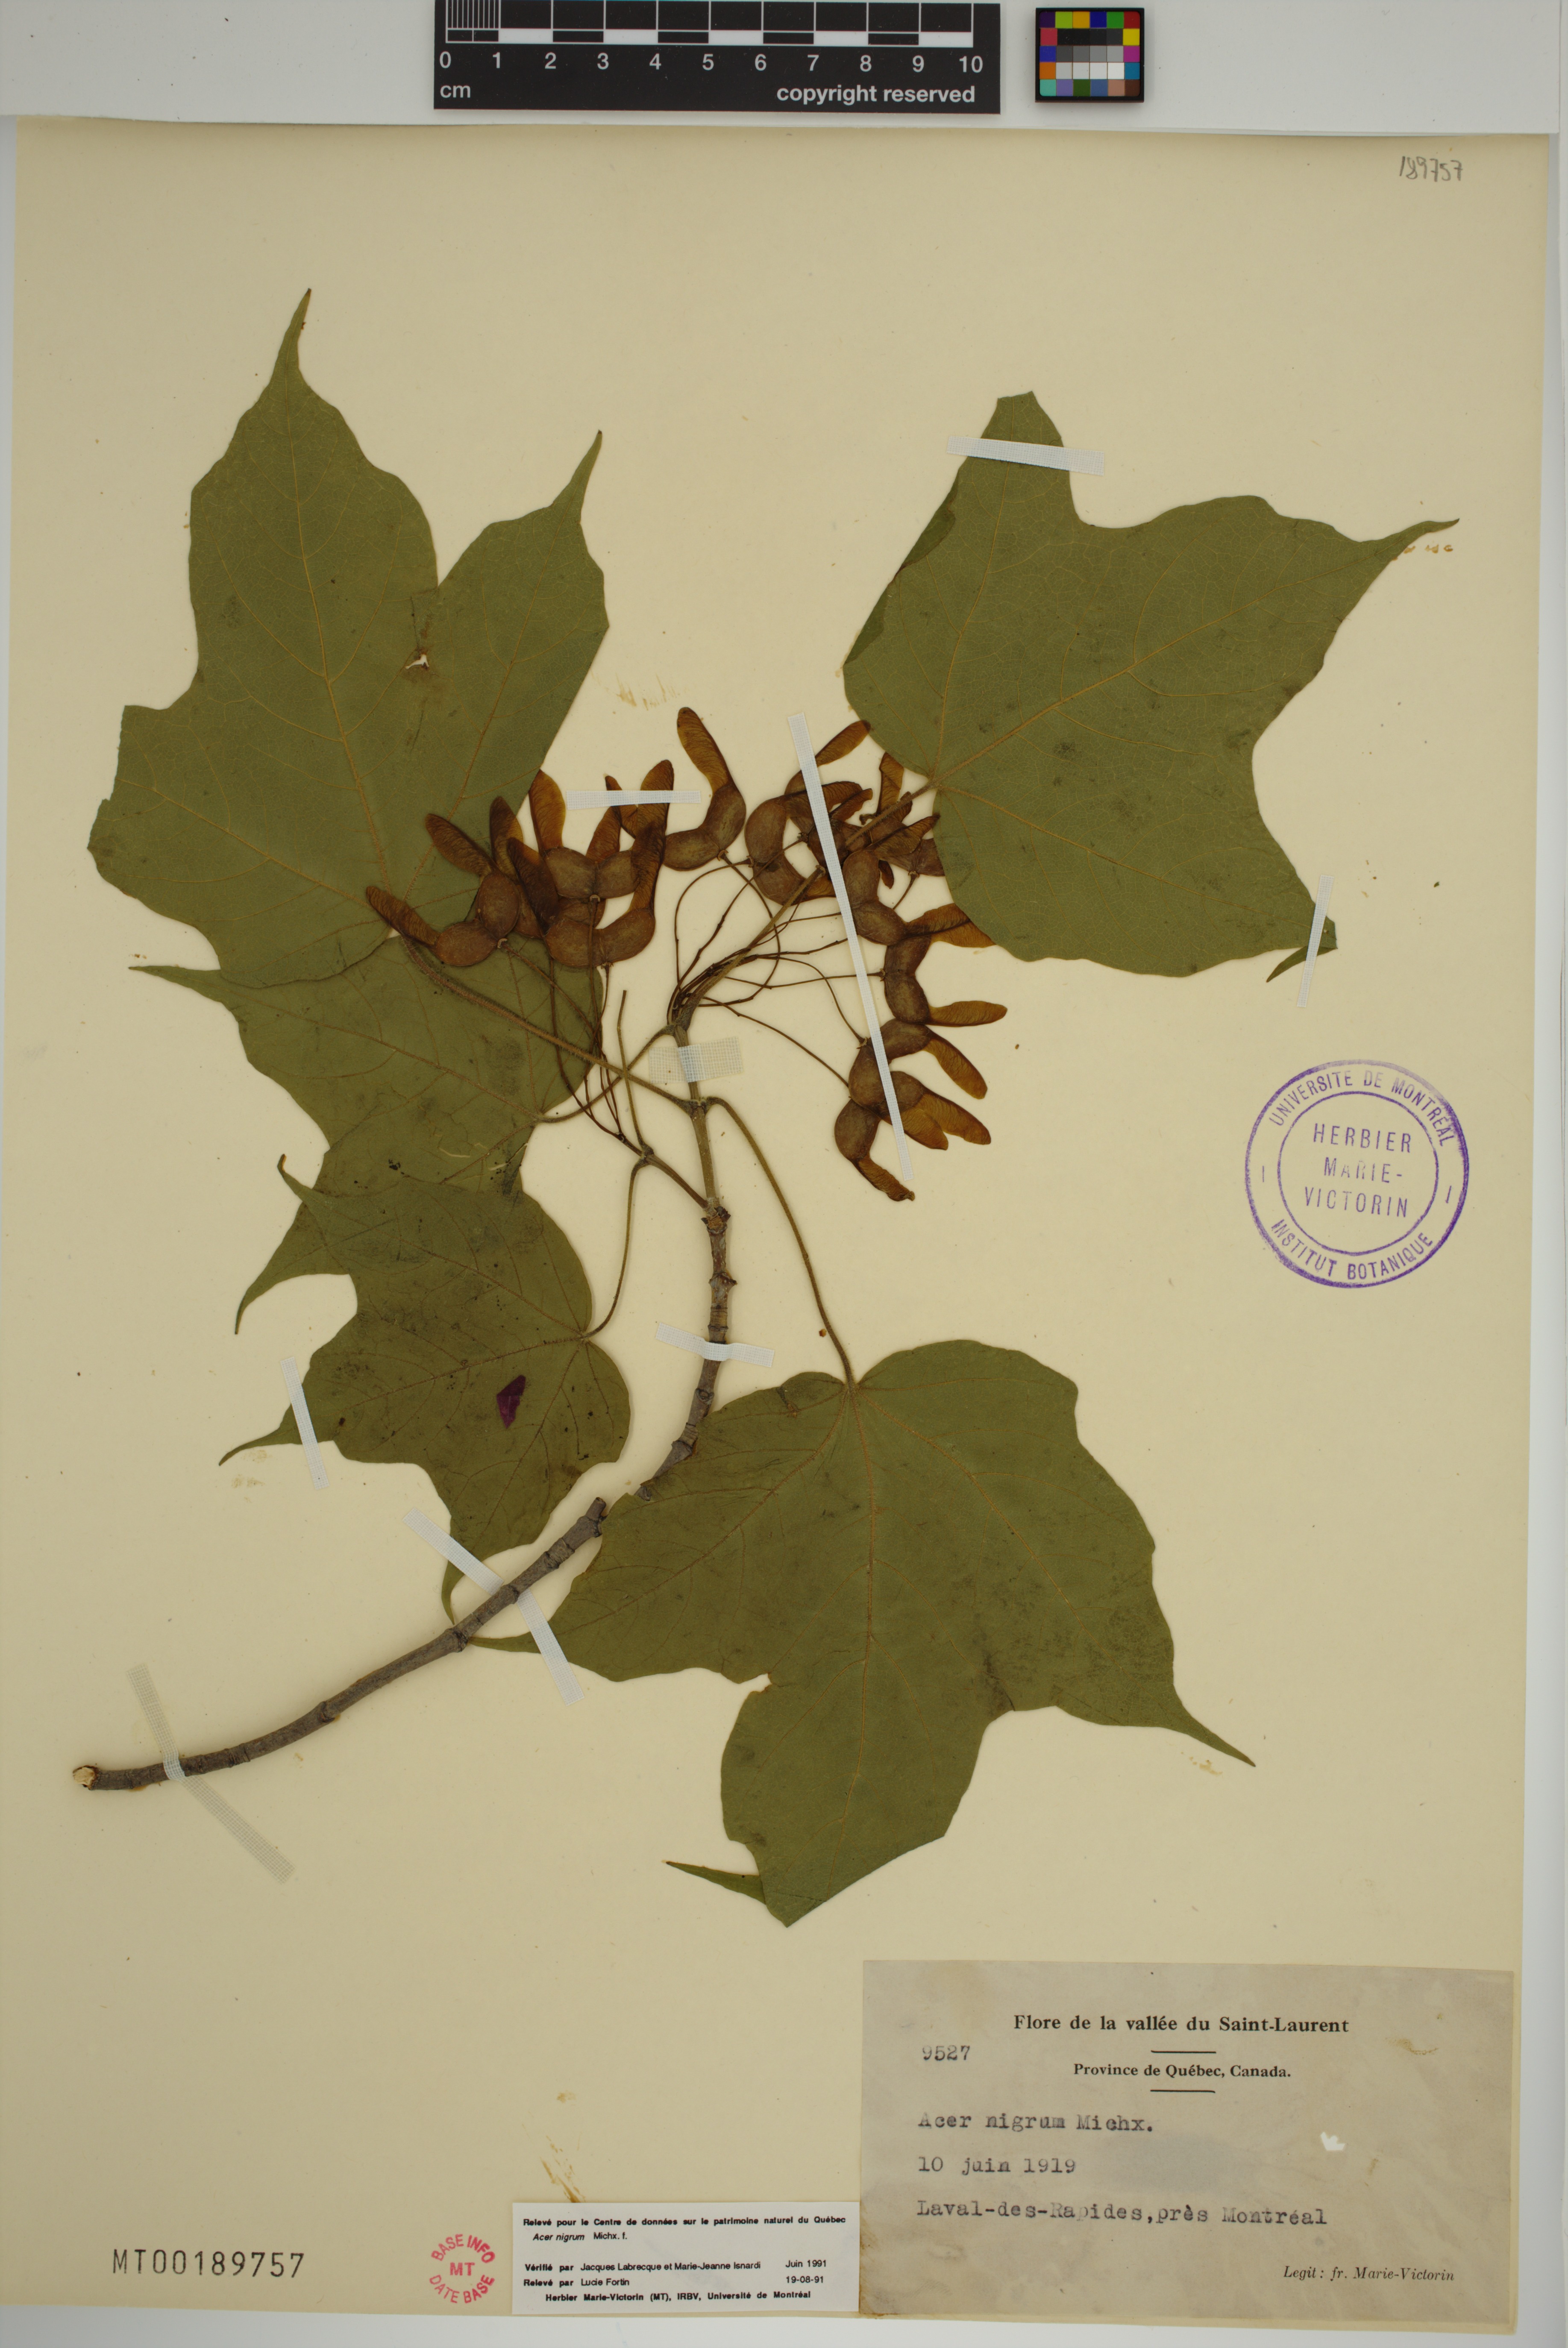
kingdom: Plantae
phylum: Tracheophyta
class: Magnoliopsida
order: Sapindales
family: Sapindaceae
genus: Acer
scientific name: Acer nigrum
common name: Black maple
